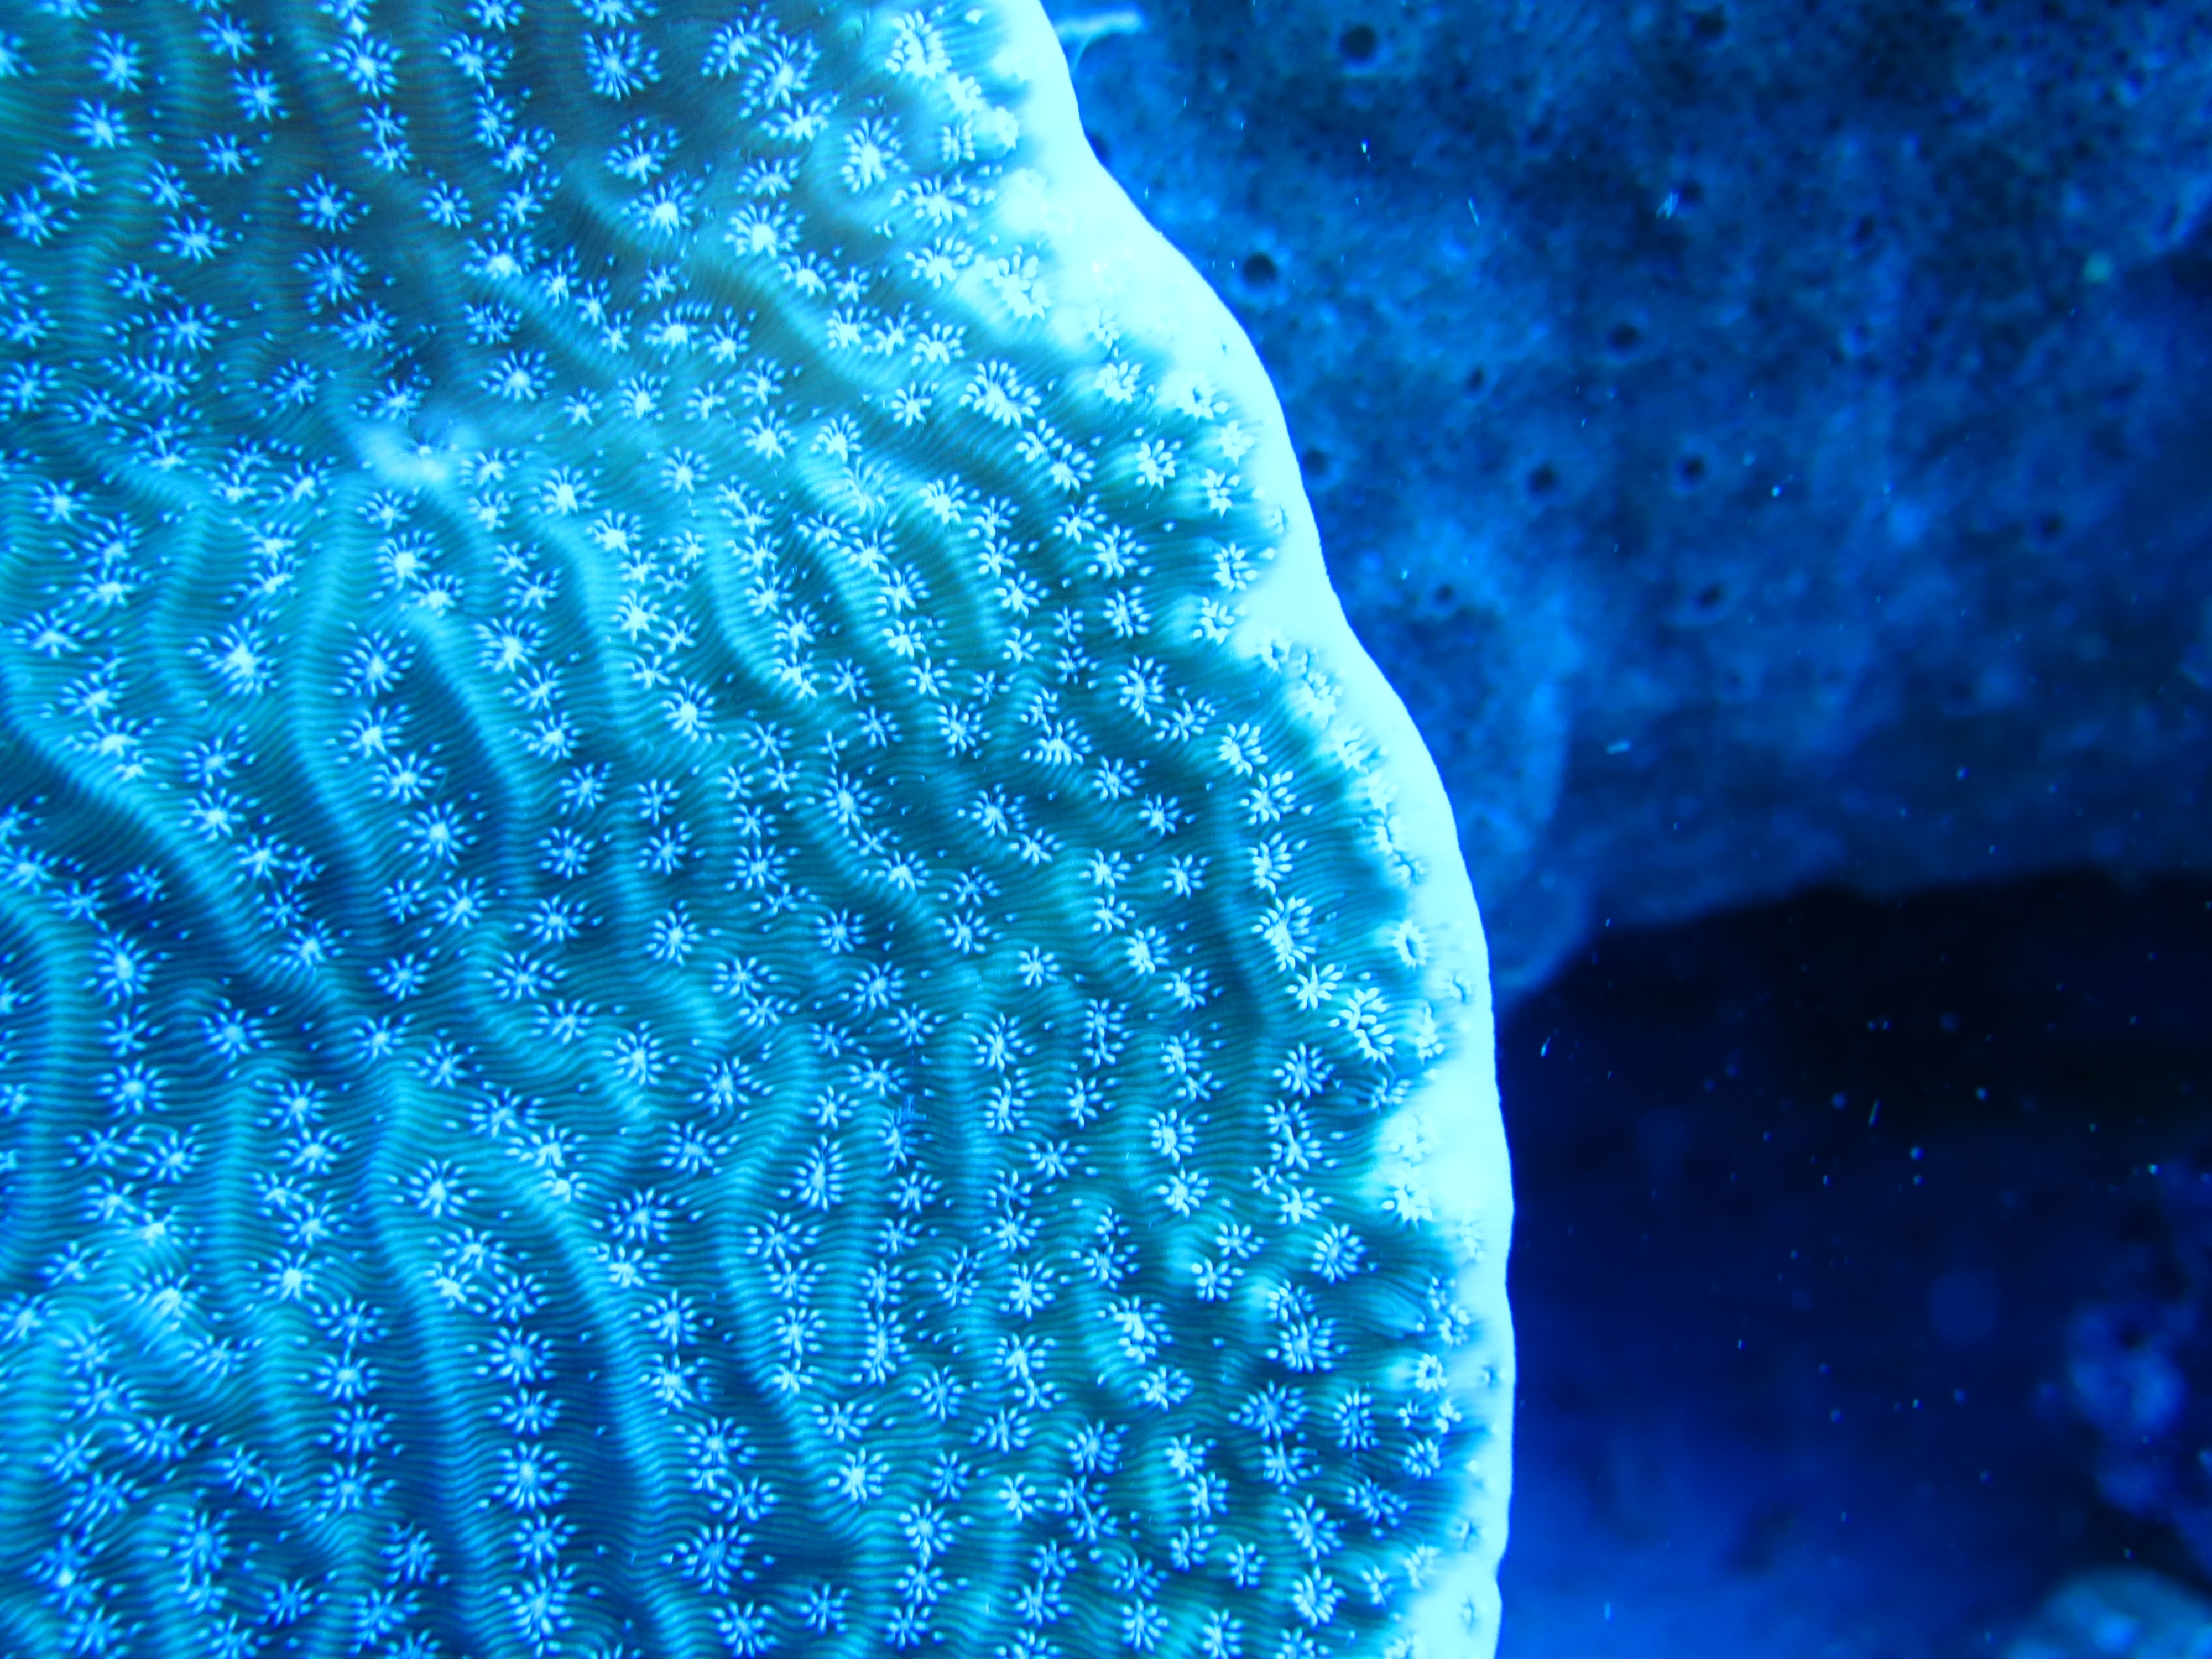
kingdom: Animalia
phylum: Cnidaria
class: Anthozoa
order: Scleractinia
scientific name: Scleractinia
